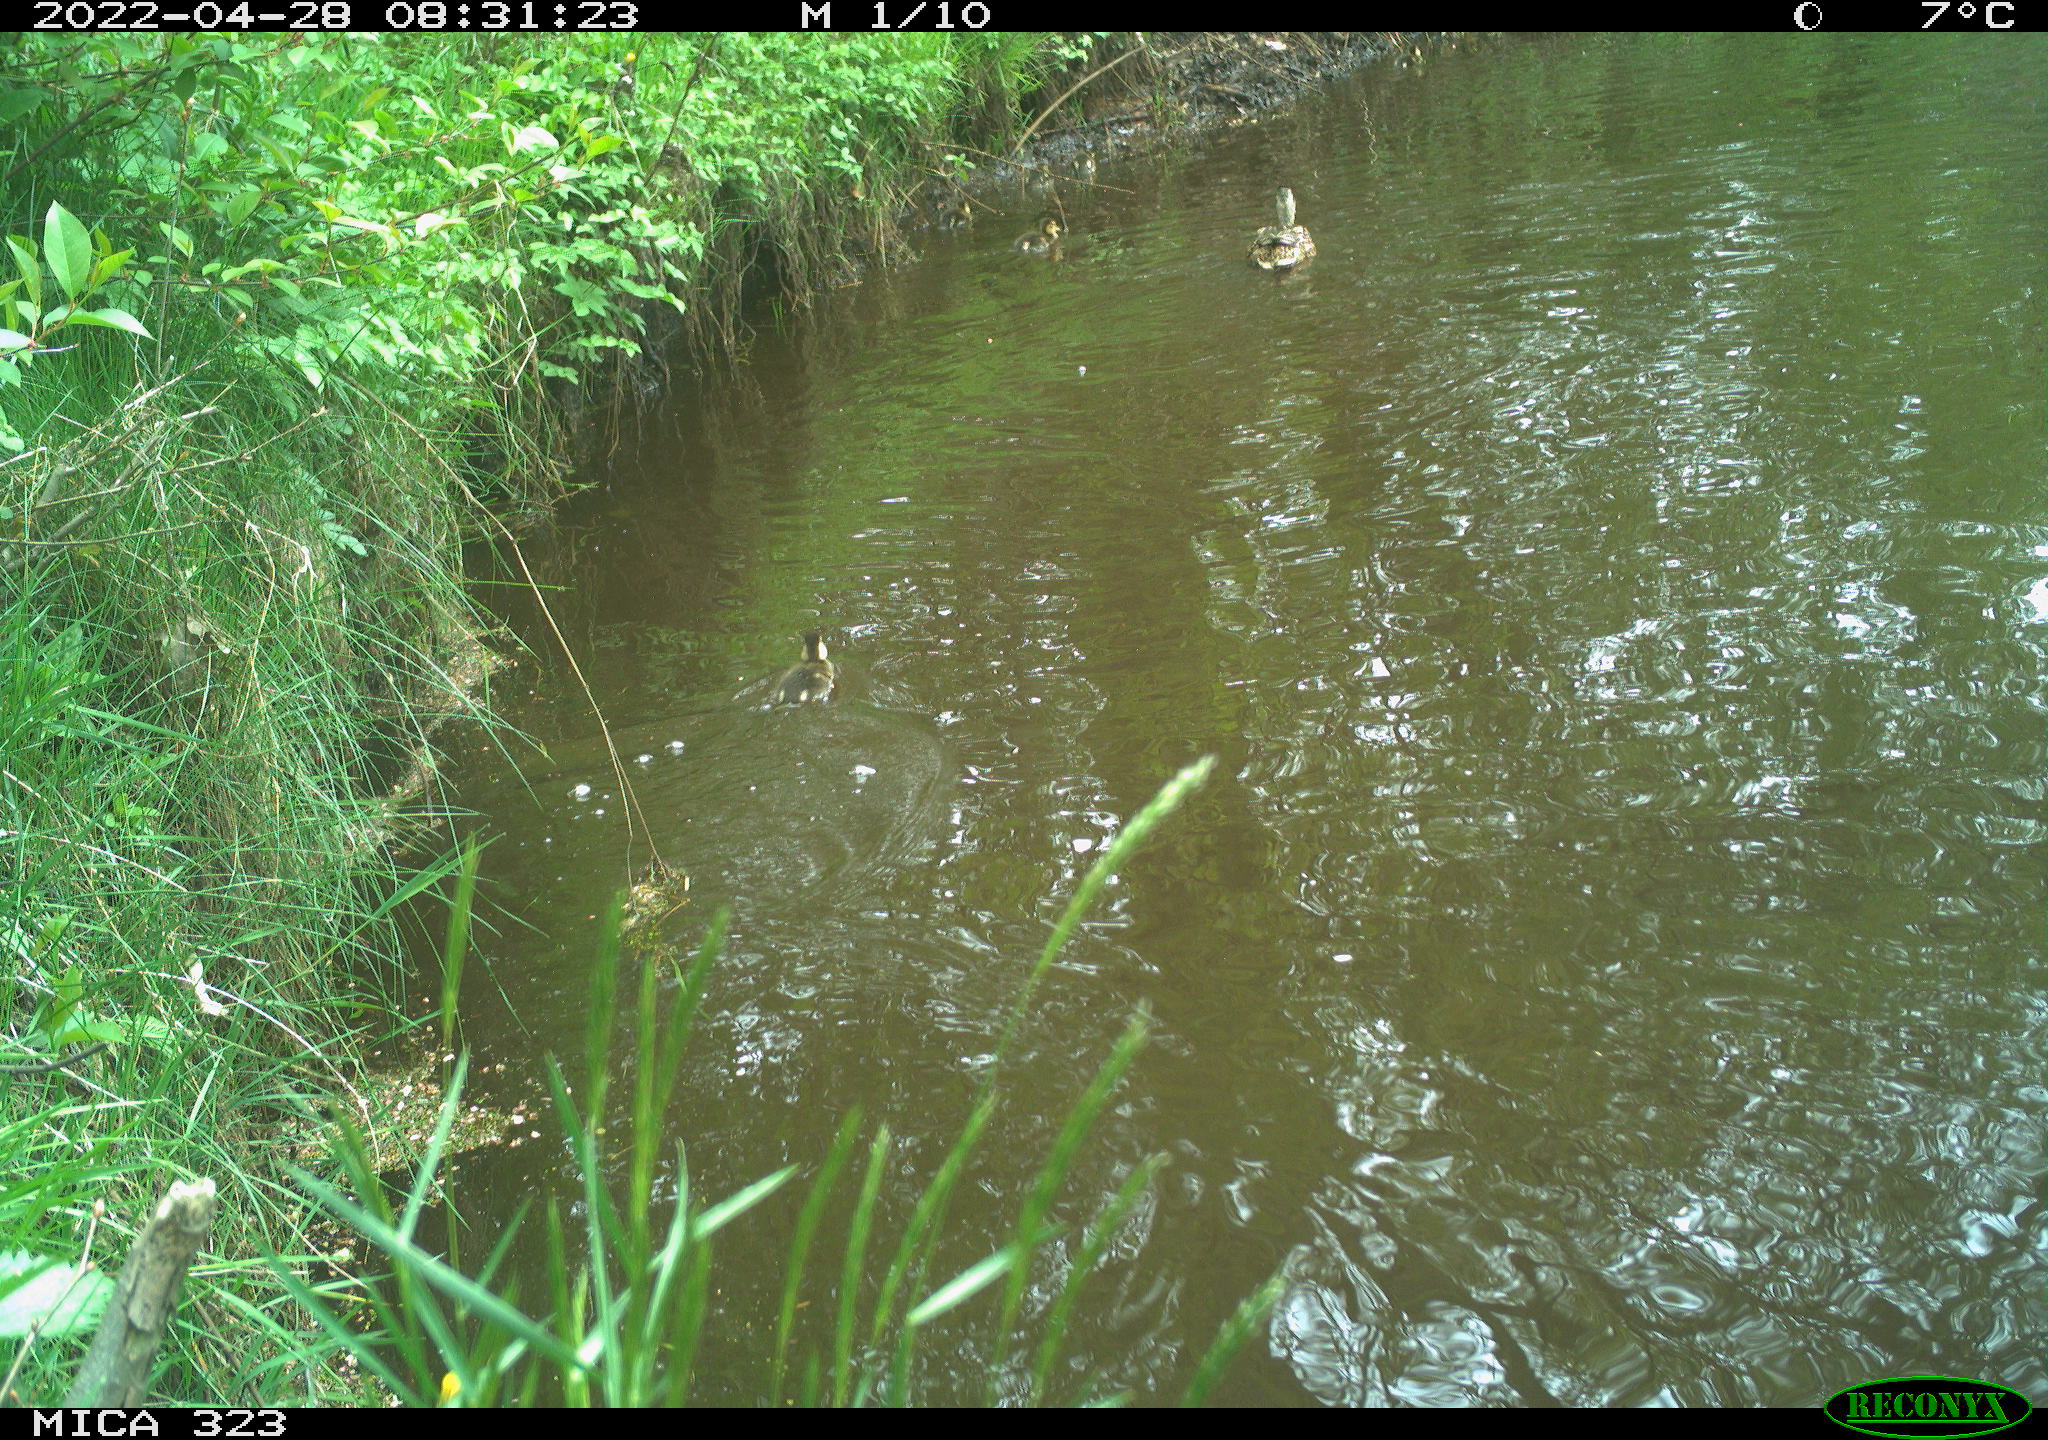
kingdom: Animalia
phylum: Chordata
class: Aves
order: Anseriformes
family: Anatidae
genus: Anas
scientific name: Anas platyrhynchos
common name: Mallard
